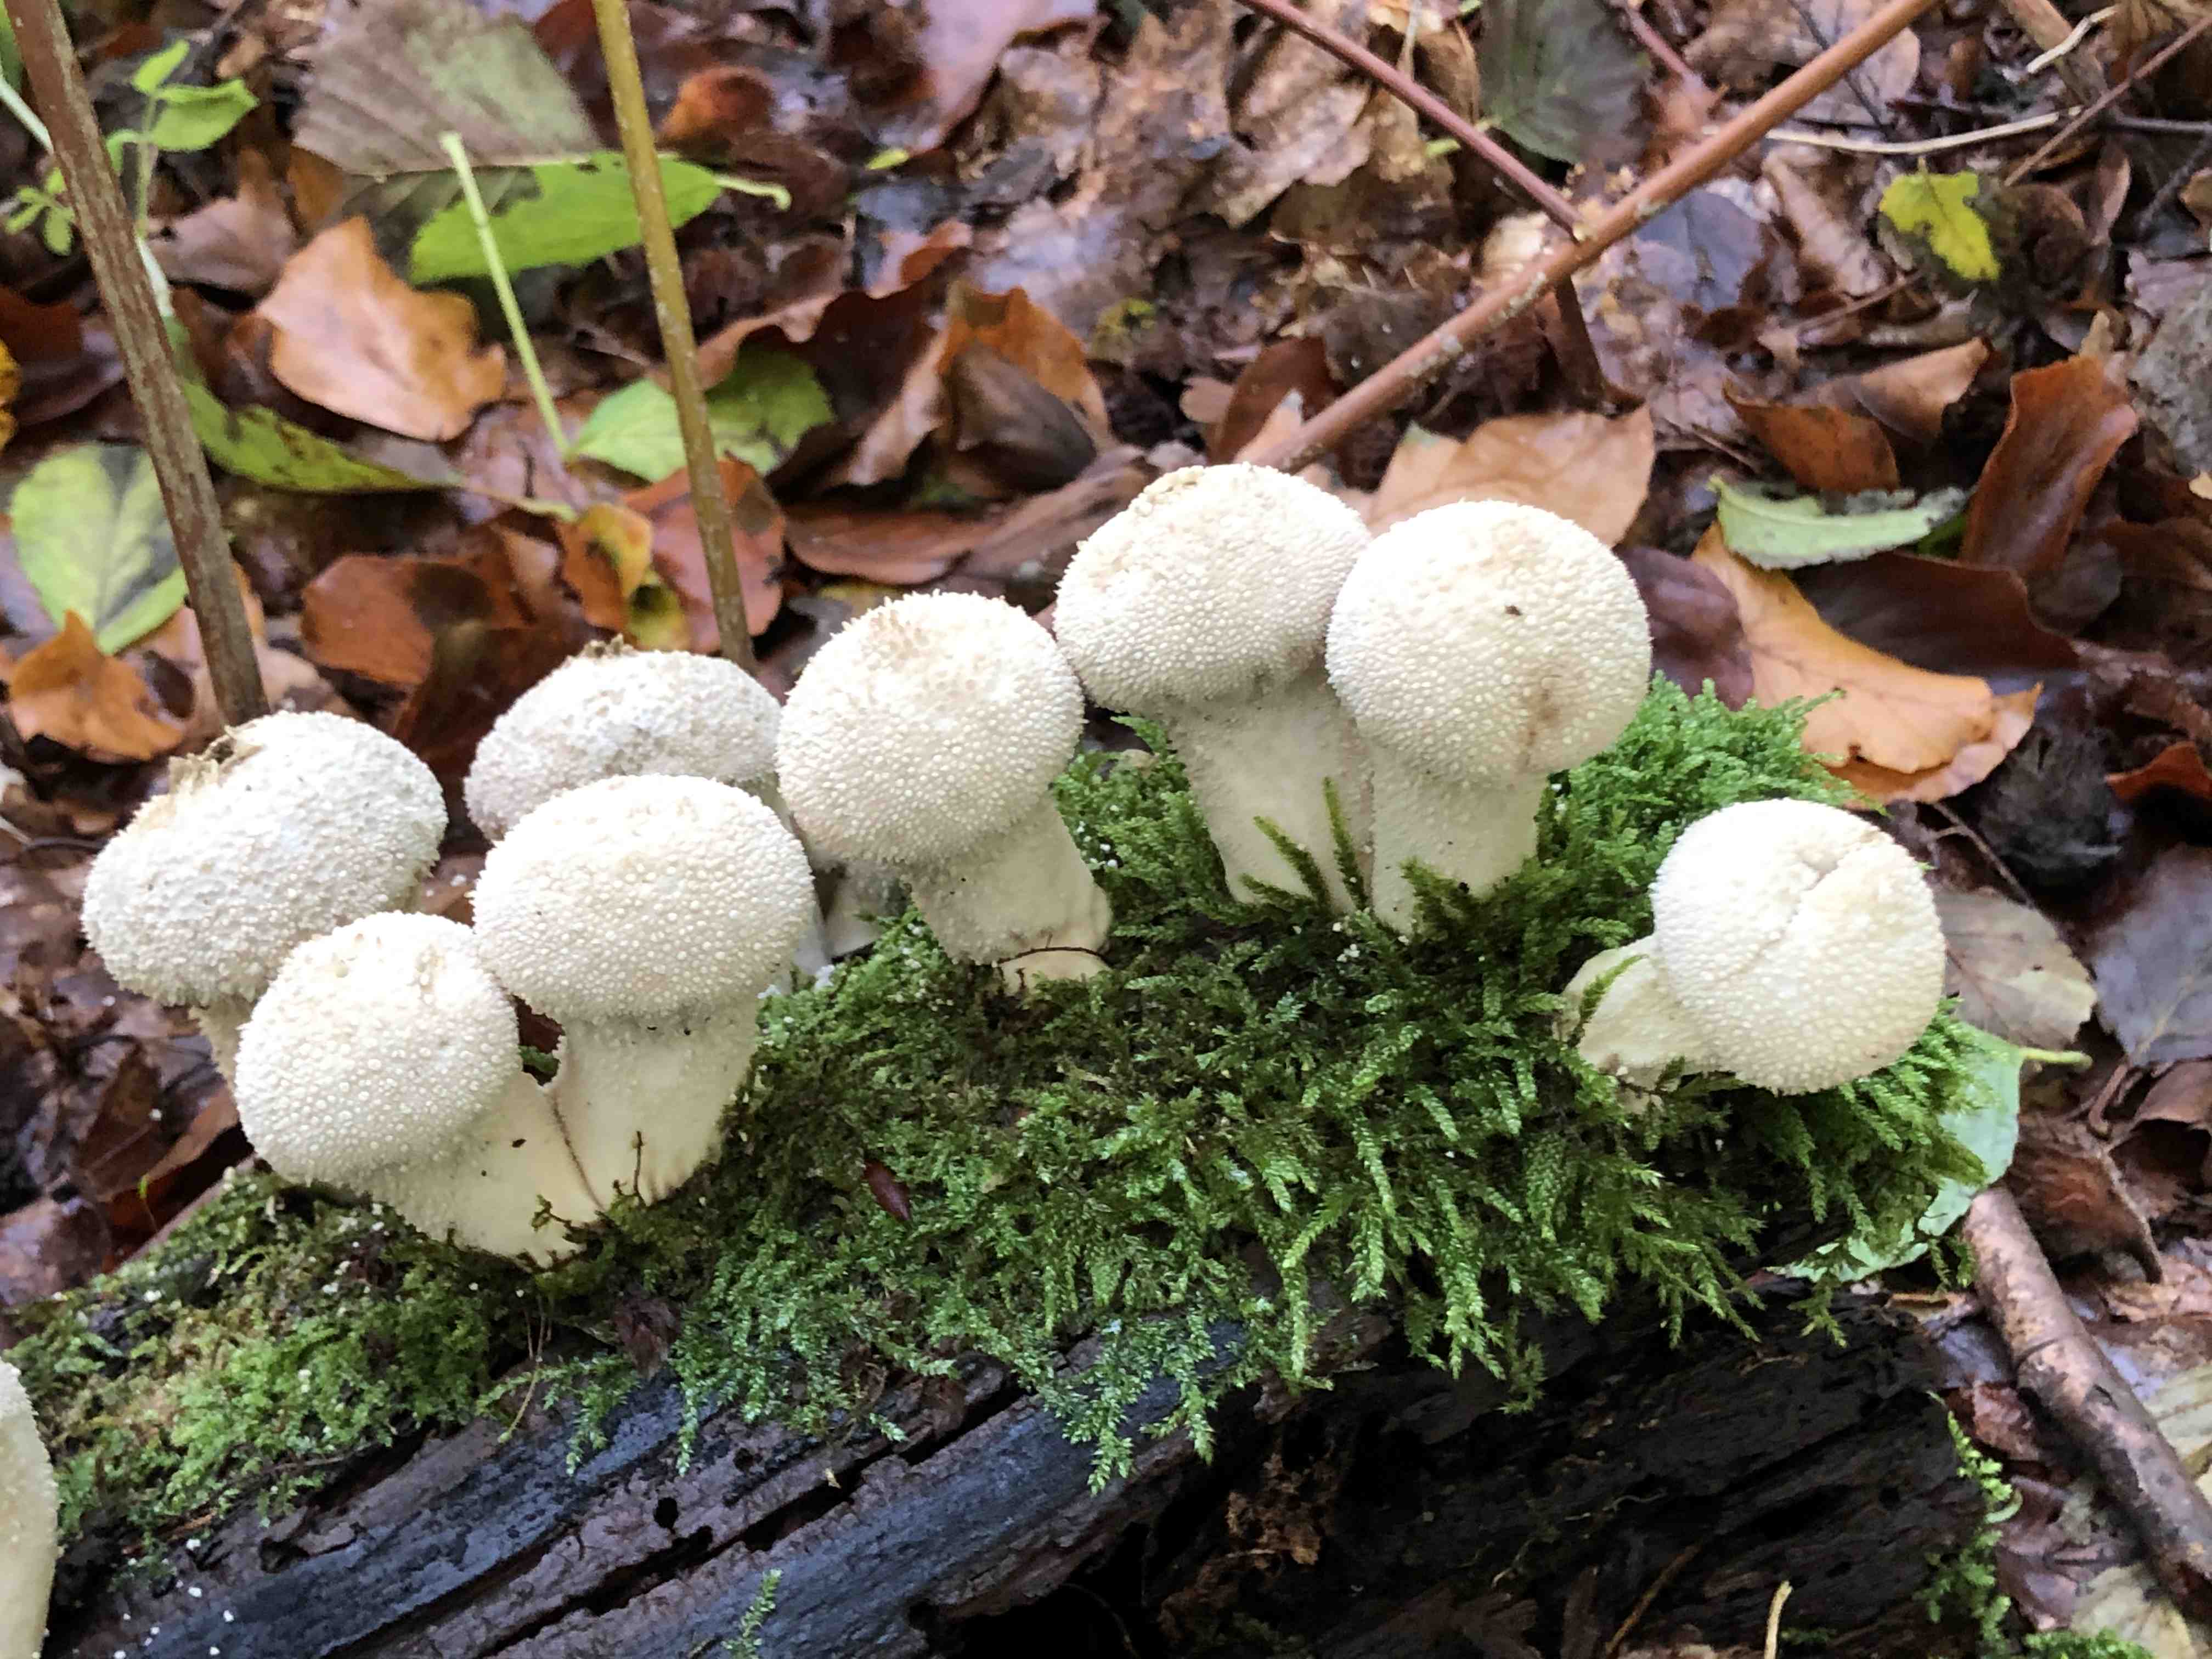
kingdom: Fungi
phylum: Basidiomycota
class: Agaricomycetes
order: Agaricales
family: Lycoperdaceae
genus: Lycoperdon
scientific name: Lycoperdon perlatum
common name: krystal-støvbold
